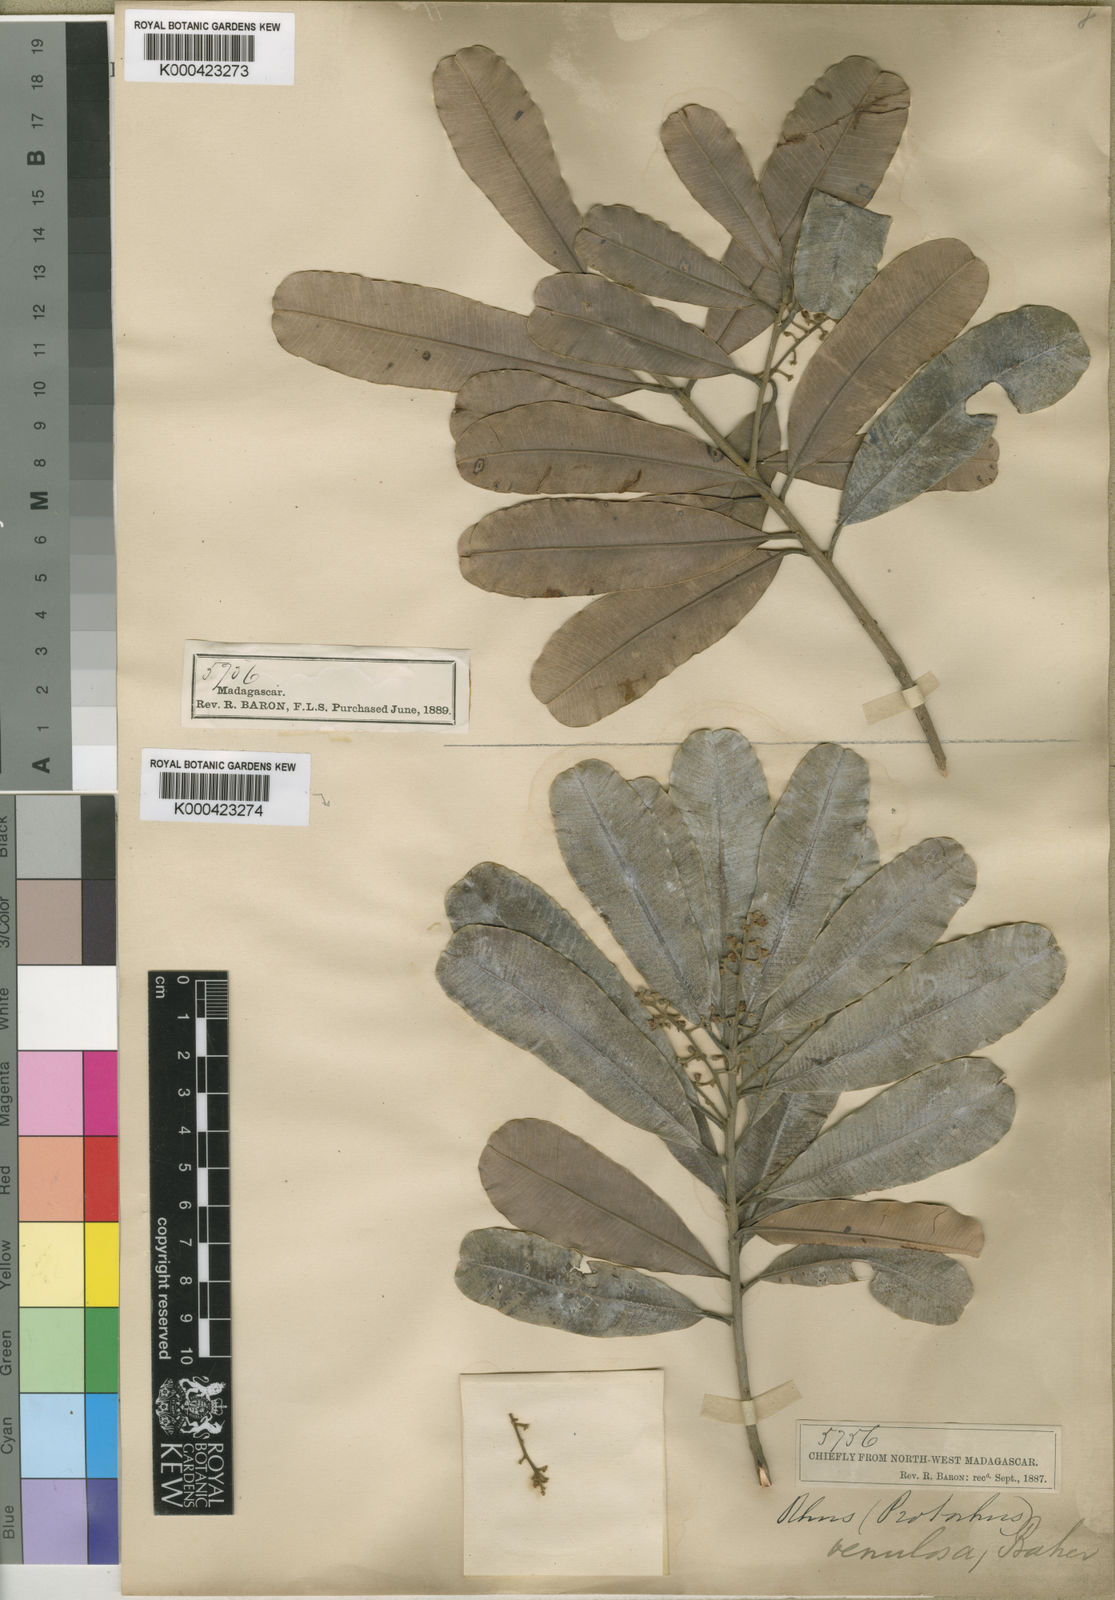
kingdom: Plantae
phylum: Tracheophyta
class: Magnoliopsida
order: Sapindales
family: Anacardiaceae
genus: Abrahamia
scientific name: Abrahamia
